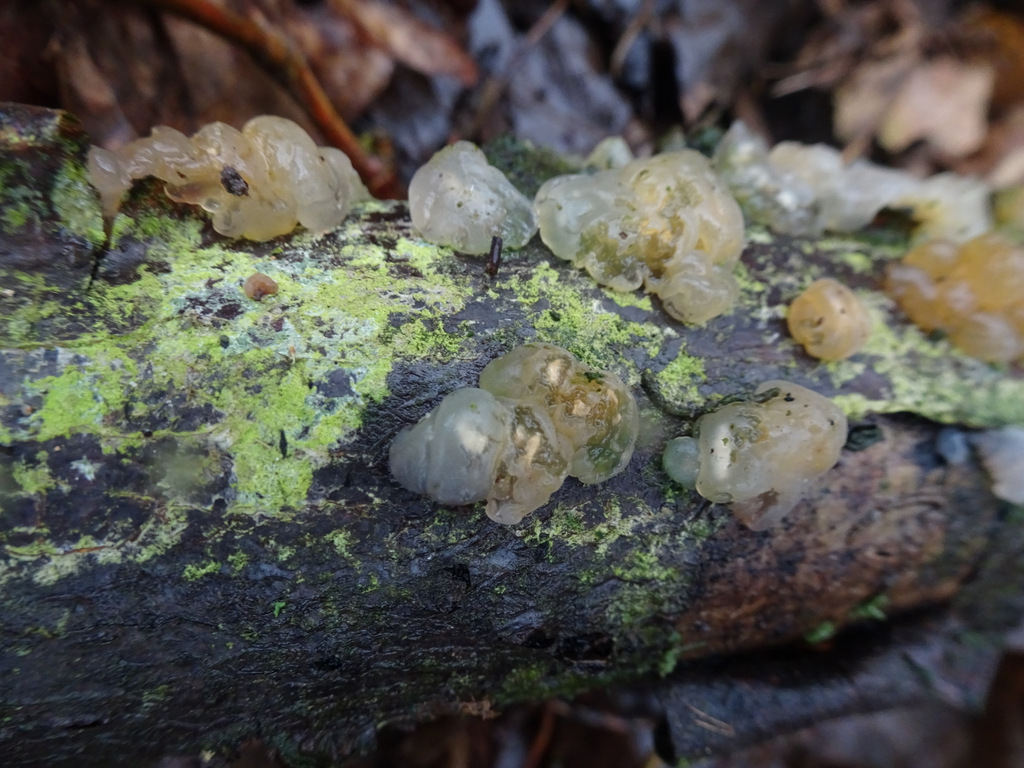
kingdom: Fungi
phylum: Basidiomycota
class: Agaricomycetes
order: Auriculariales
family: Hyaloriaceae
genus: Myxarium
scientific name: Myxarium nucleatum
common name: klar bævretop
